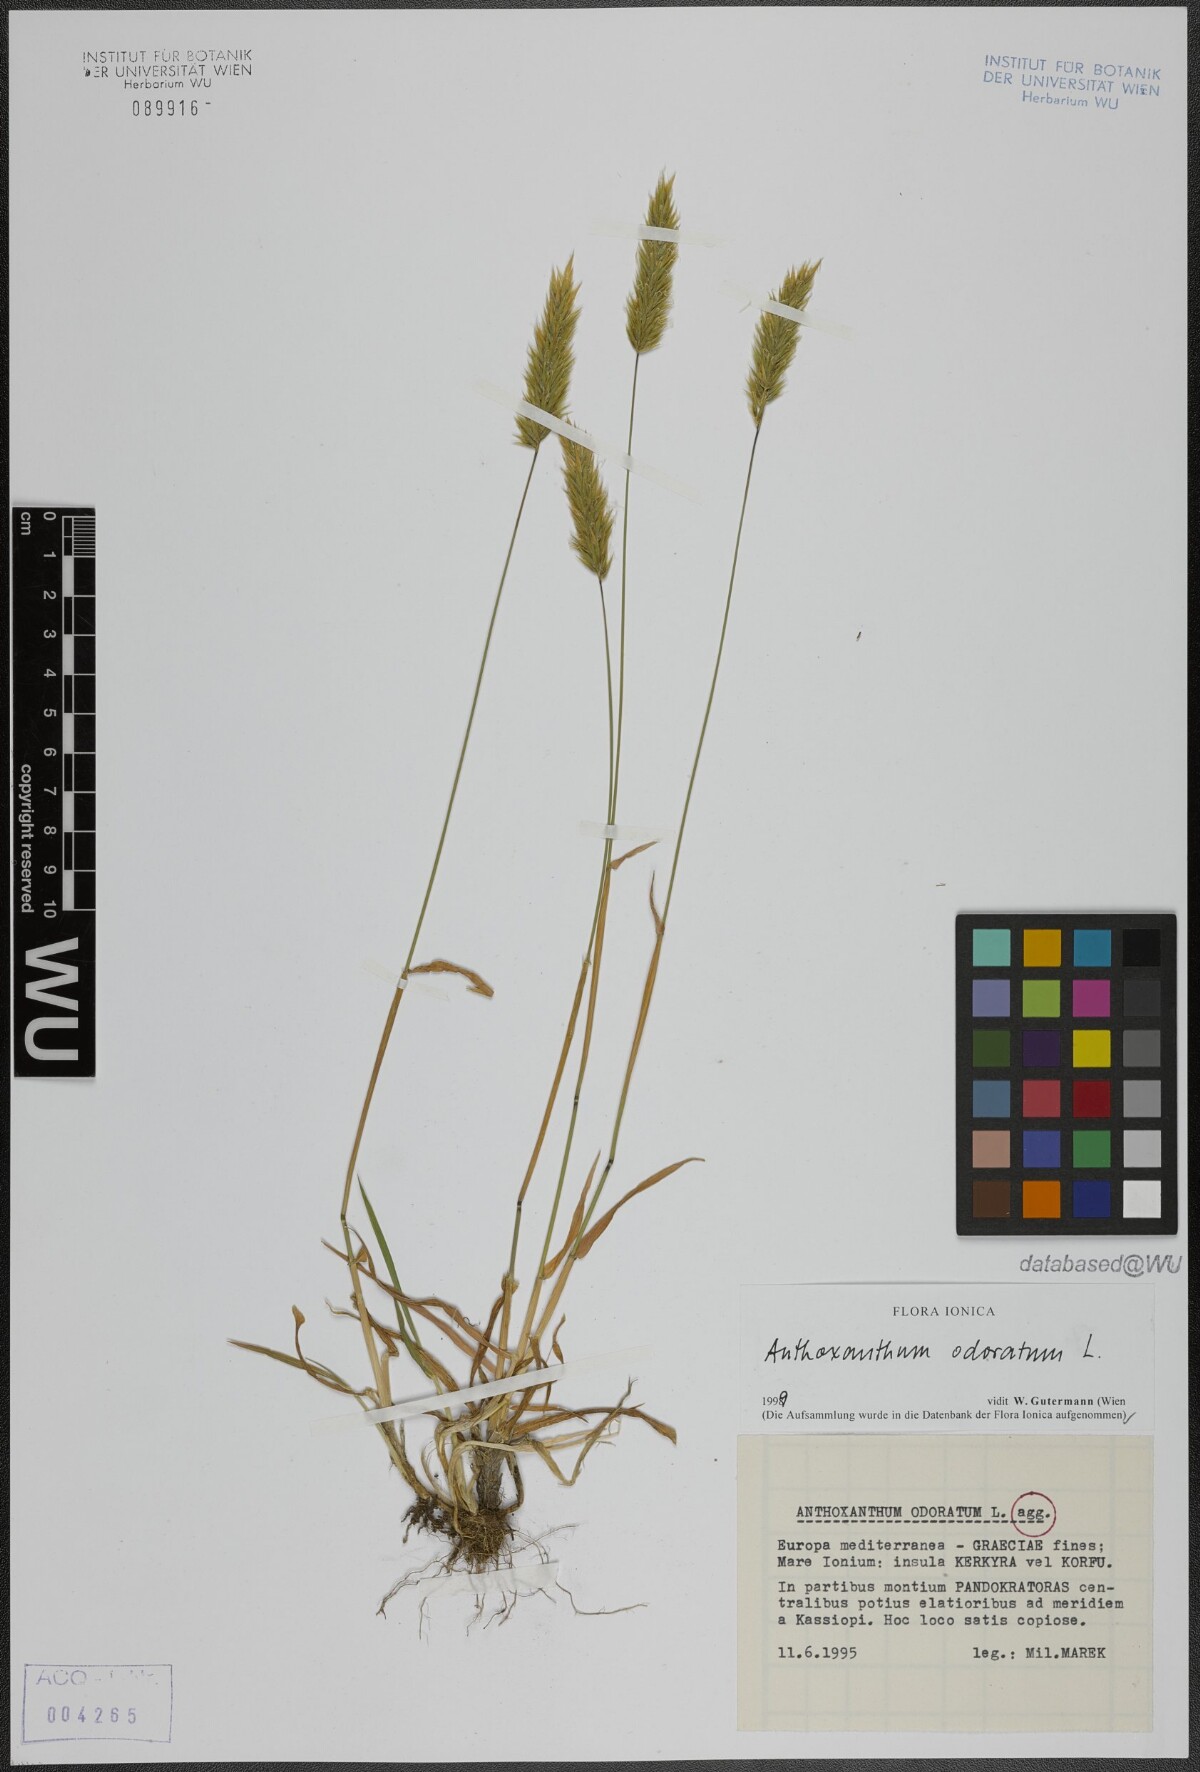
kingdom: Plantae
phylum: Tracheophyta
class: Liliopsida
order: Poales
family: Poaceae
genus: Anthoxanthum
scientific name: Anthoxanthum odoratum
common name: Sweet vernalgrass
